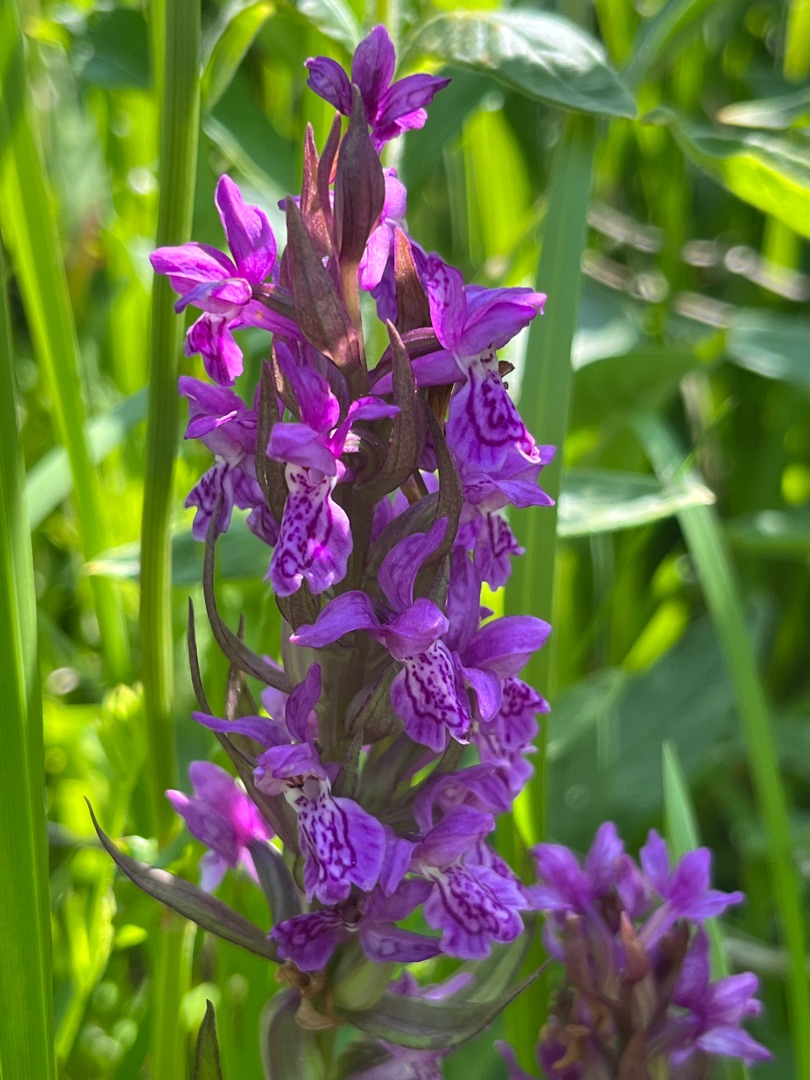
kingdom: Plantae
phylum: Tracheophyta
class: Liliopsida
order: Asparagales
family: Orchidaceae
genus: Dactylorhiza
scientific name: Dactylorhiza majalis
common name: Maj-gøgeurt
